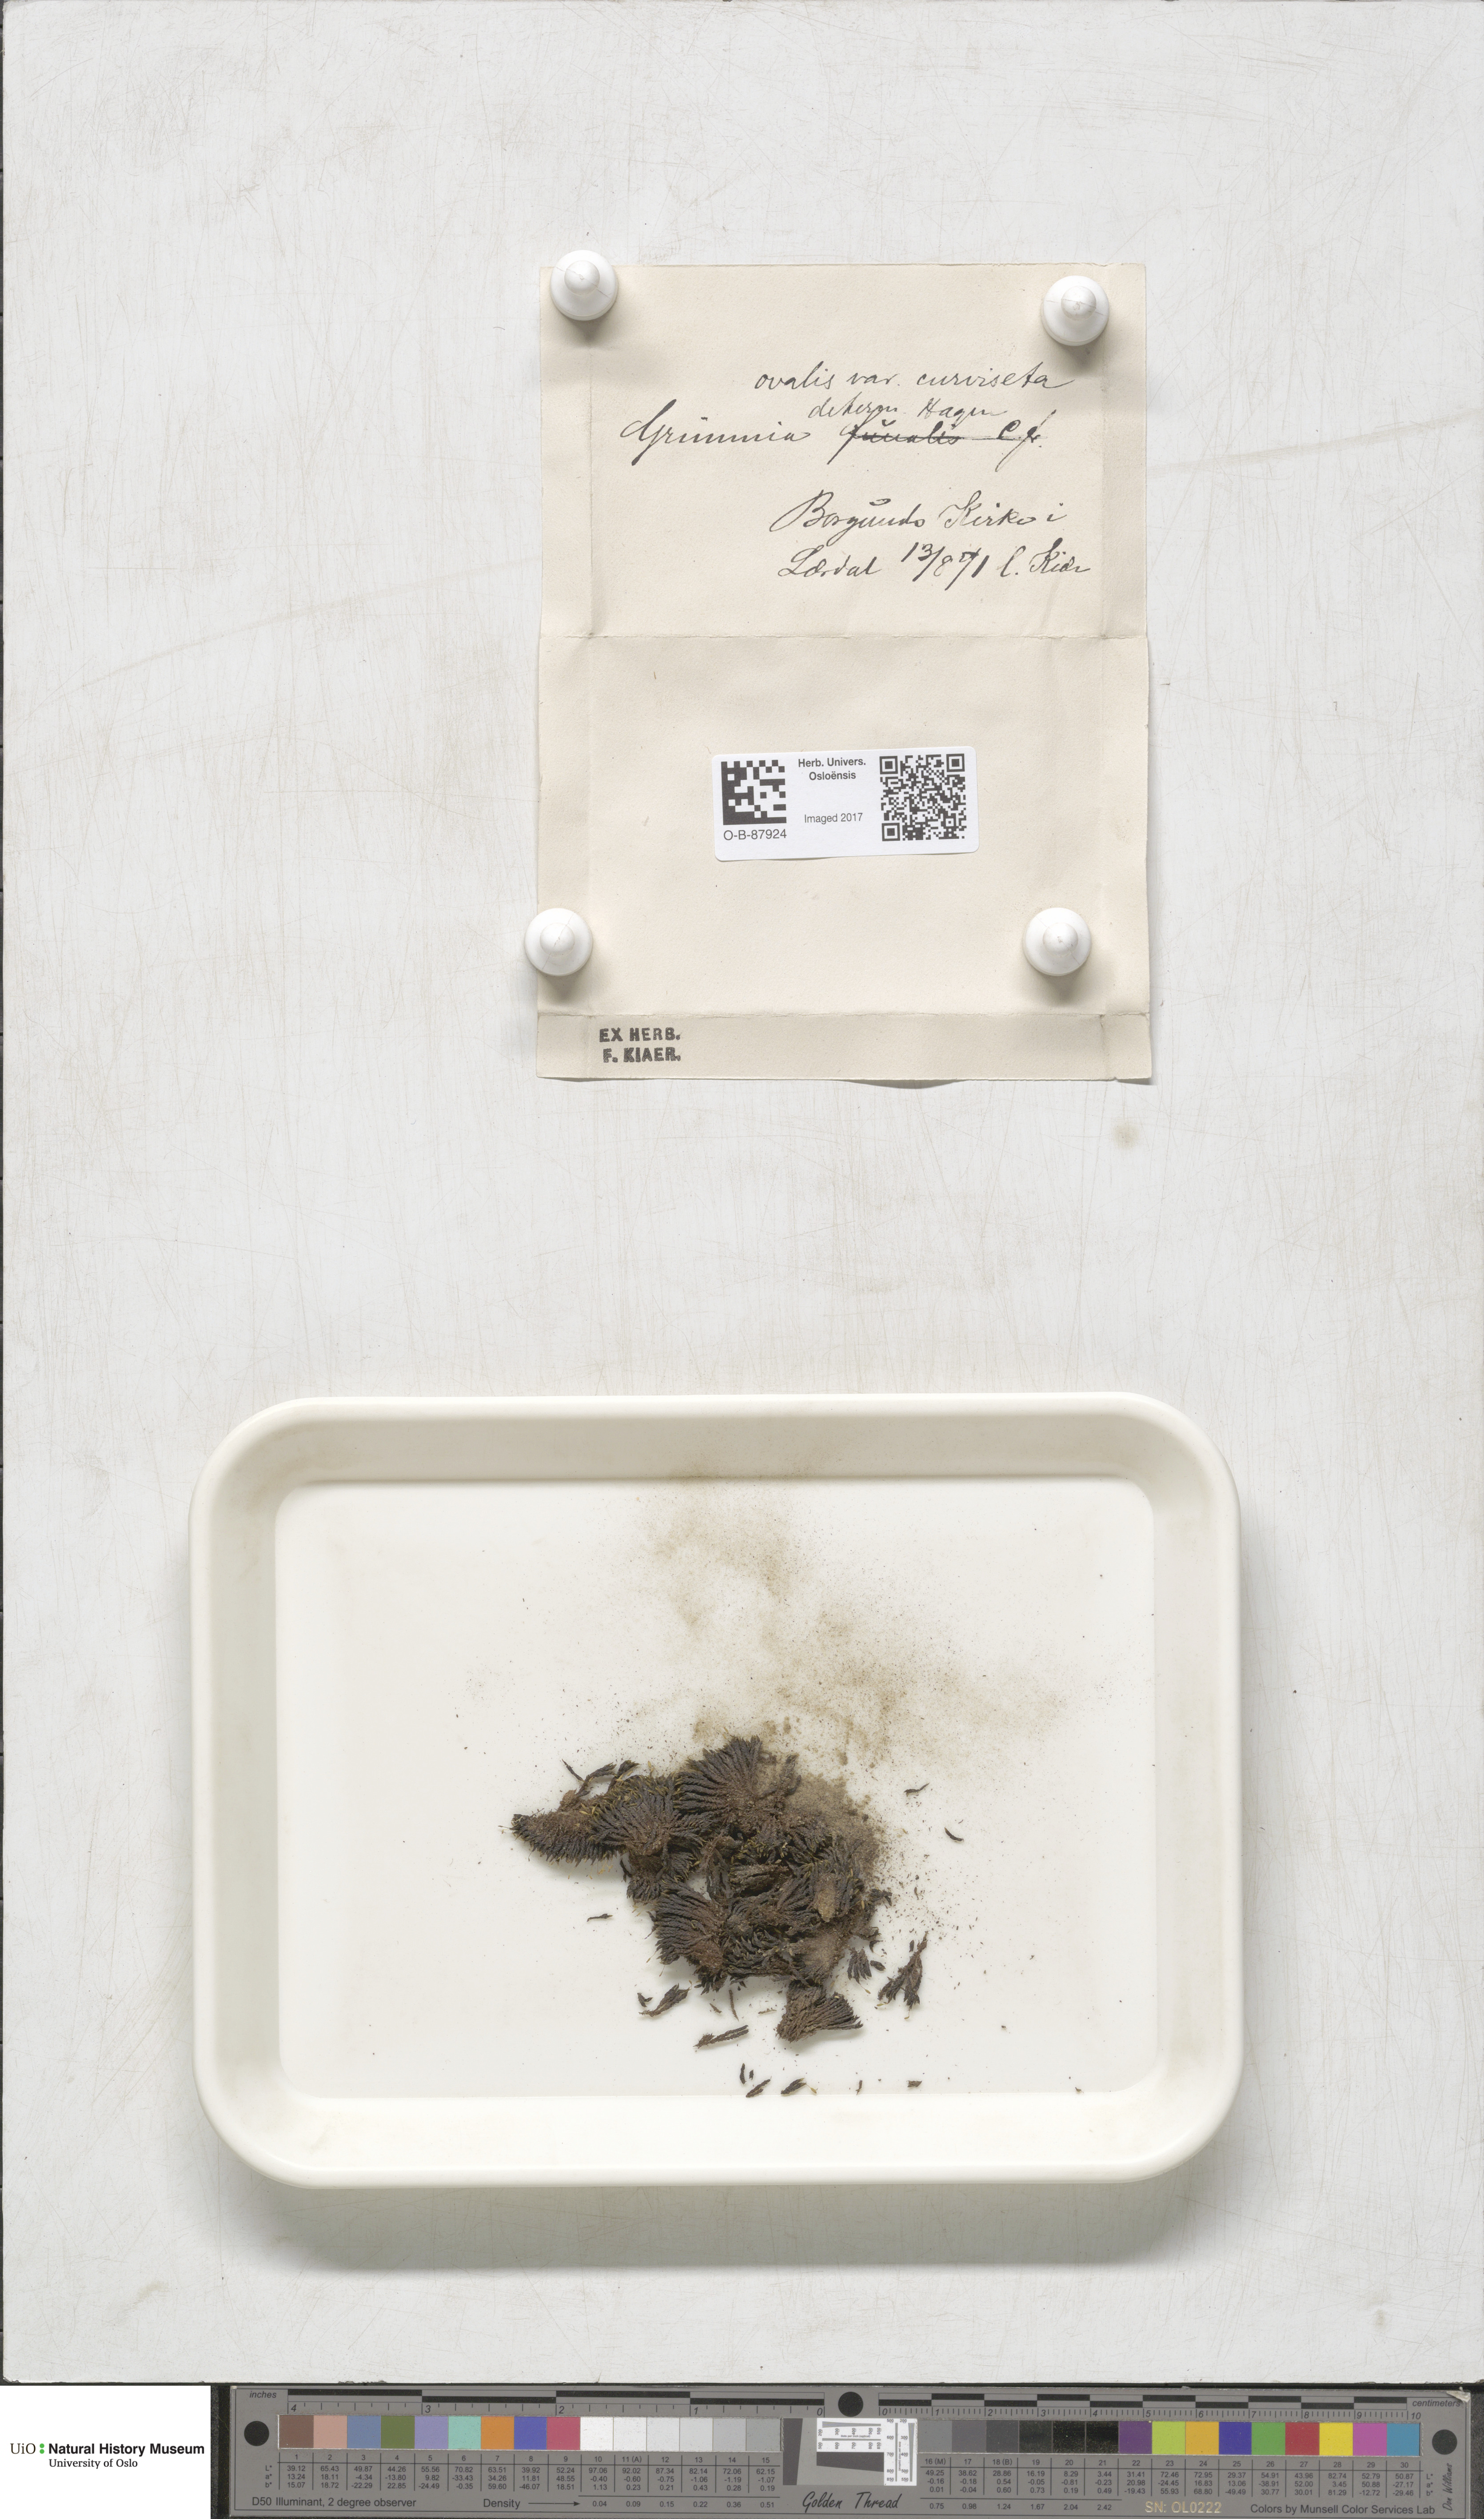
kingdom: Plantae
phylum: Bryophyta
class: Bryopsida
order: Grimmiales
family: Grimmiaceae
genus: Grimmia
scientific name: Grimmia ovalis
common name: Oval grimmia
